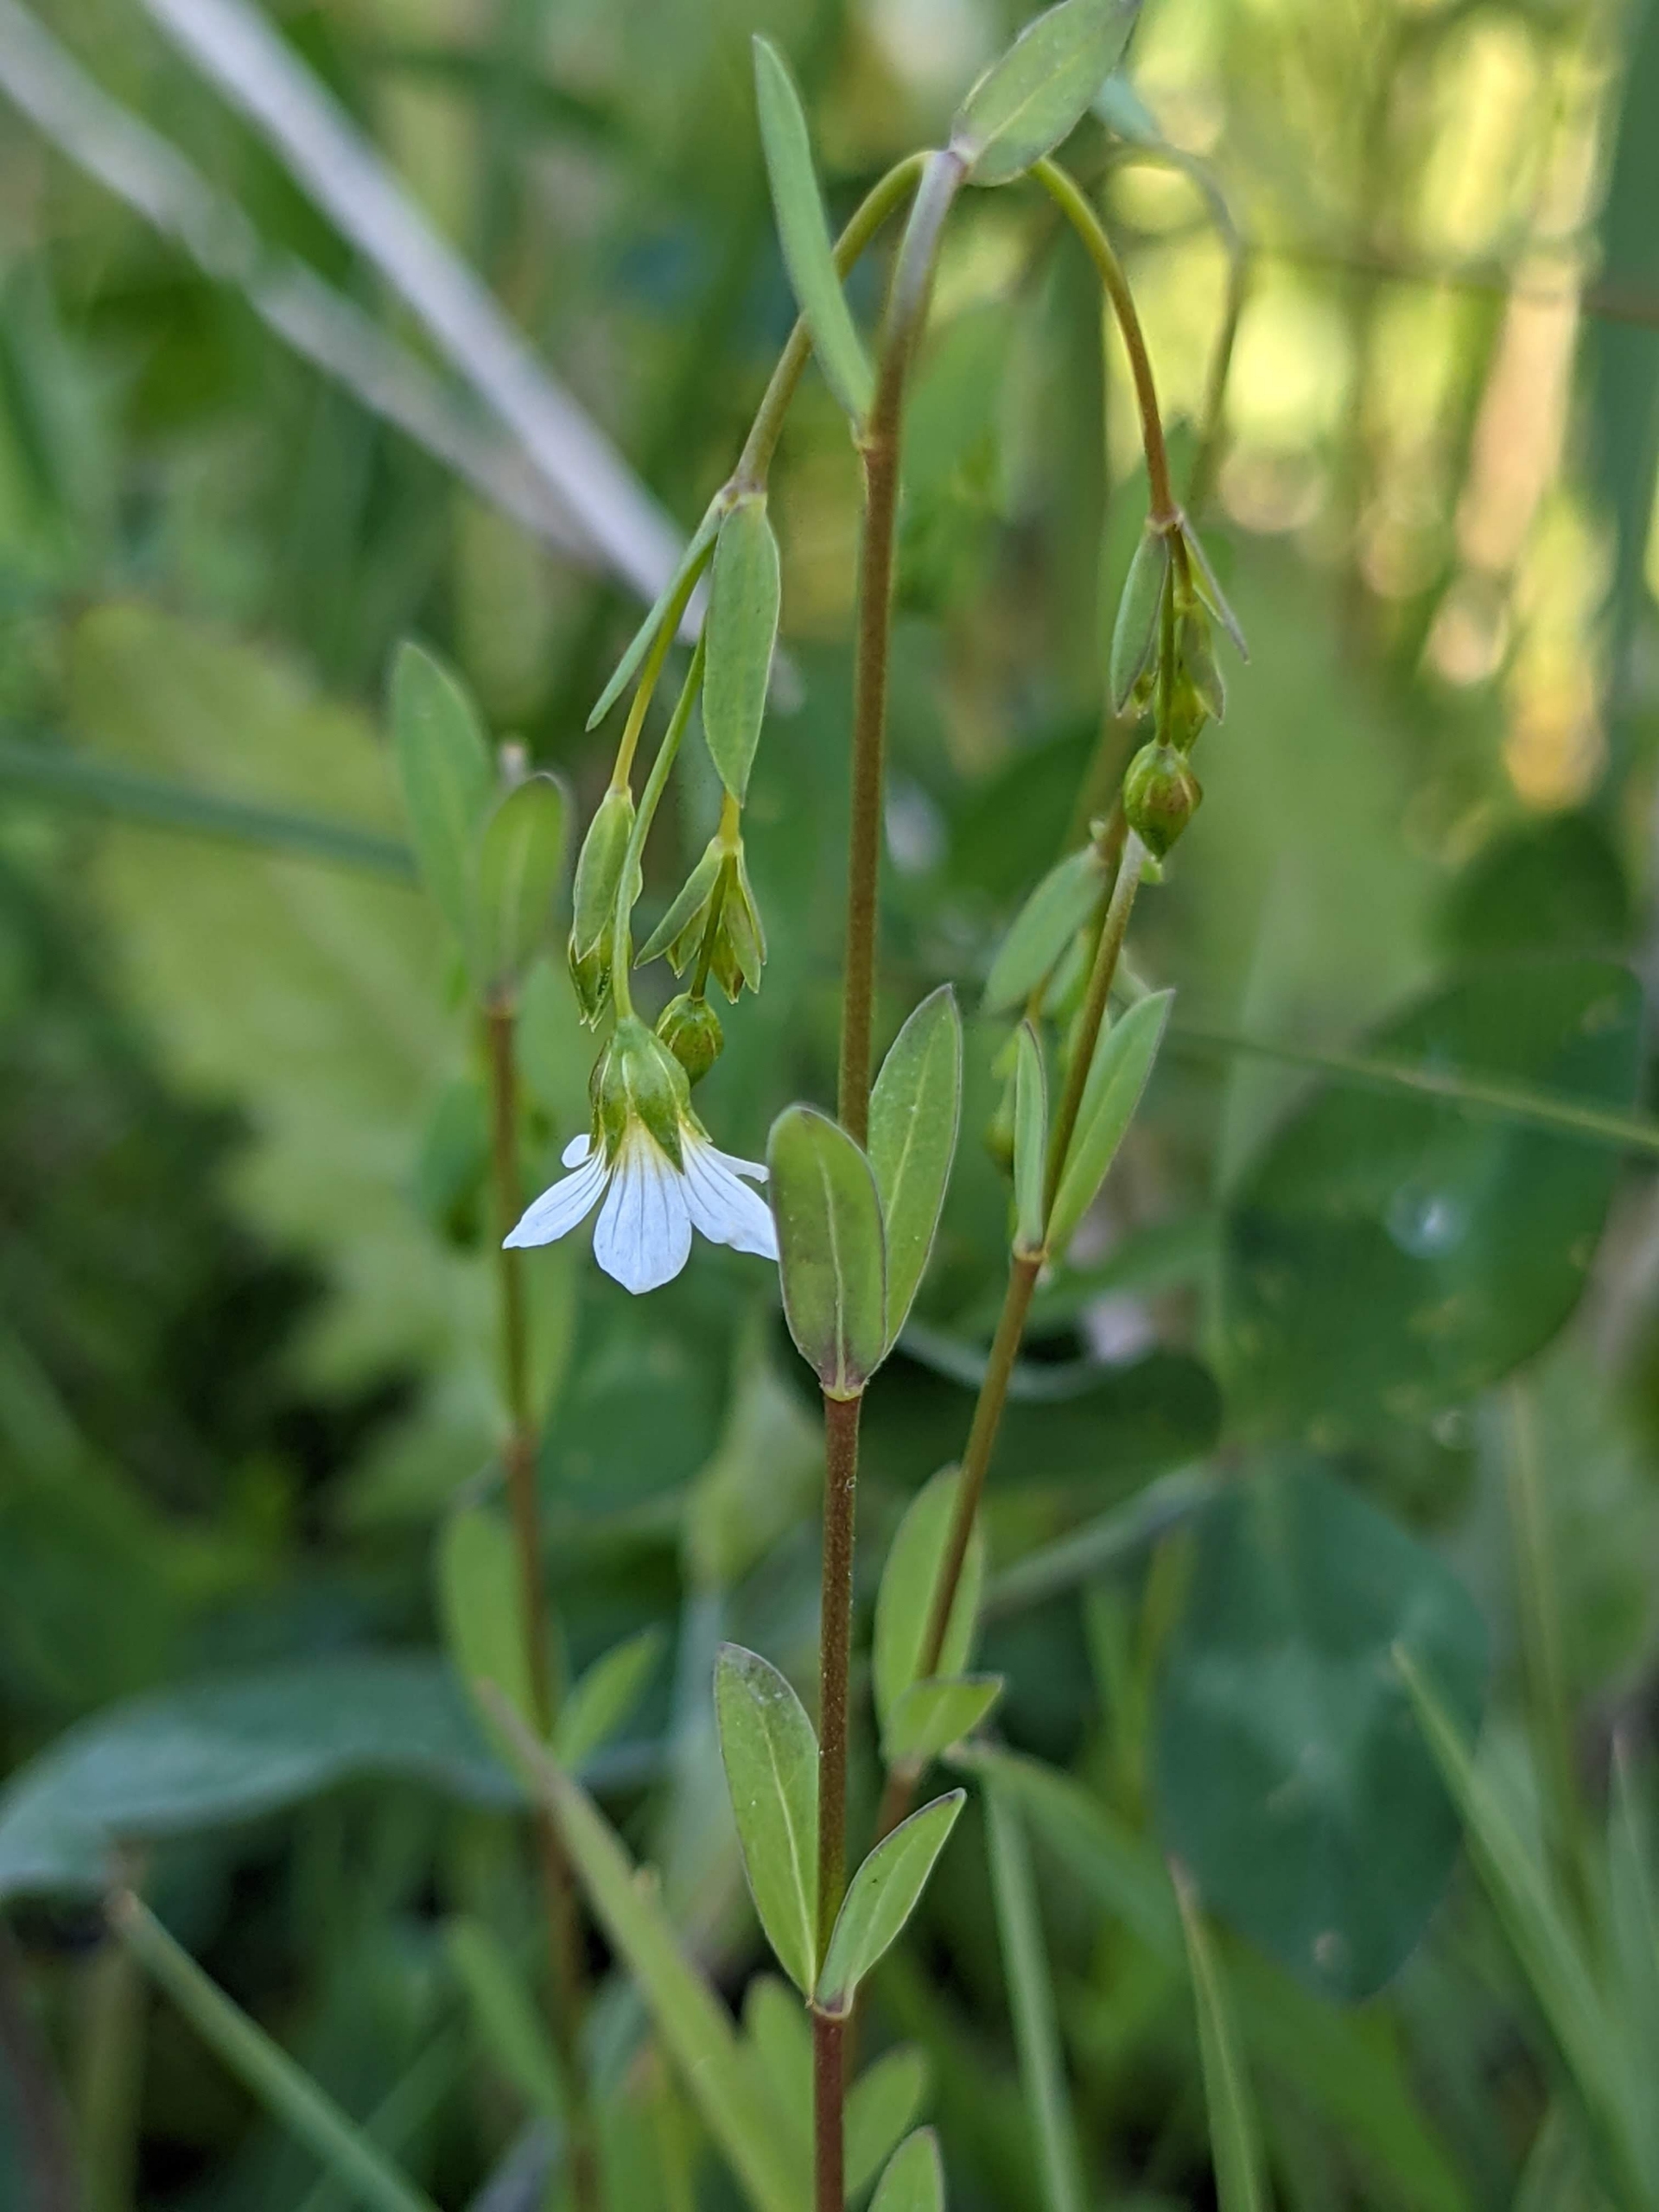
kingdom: Plantae
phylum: Tracheophyta
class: Magnoliopsida
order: Malpighiales
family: Linaceae
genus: Linum
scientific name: Linum catharticum
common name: Vild hør
